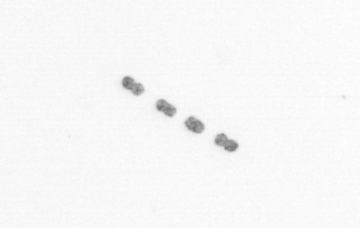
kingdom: Chromista
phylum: Ochrophyta
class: Bacillariophyceae
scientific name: Bacillariophyceae
